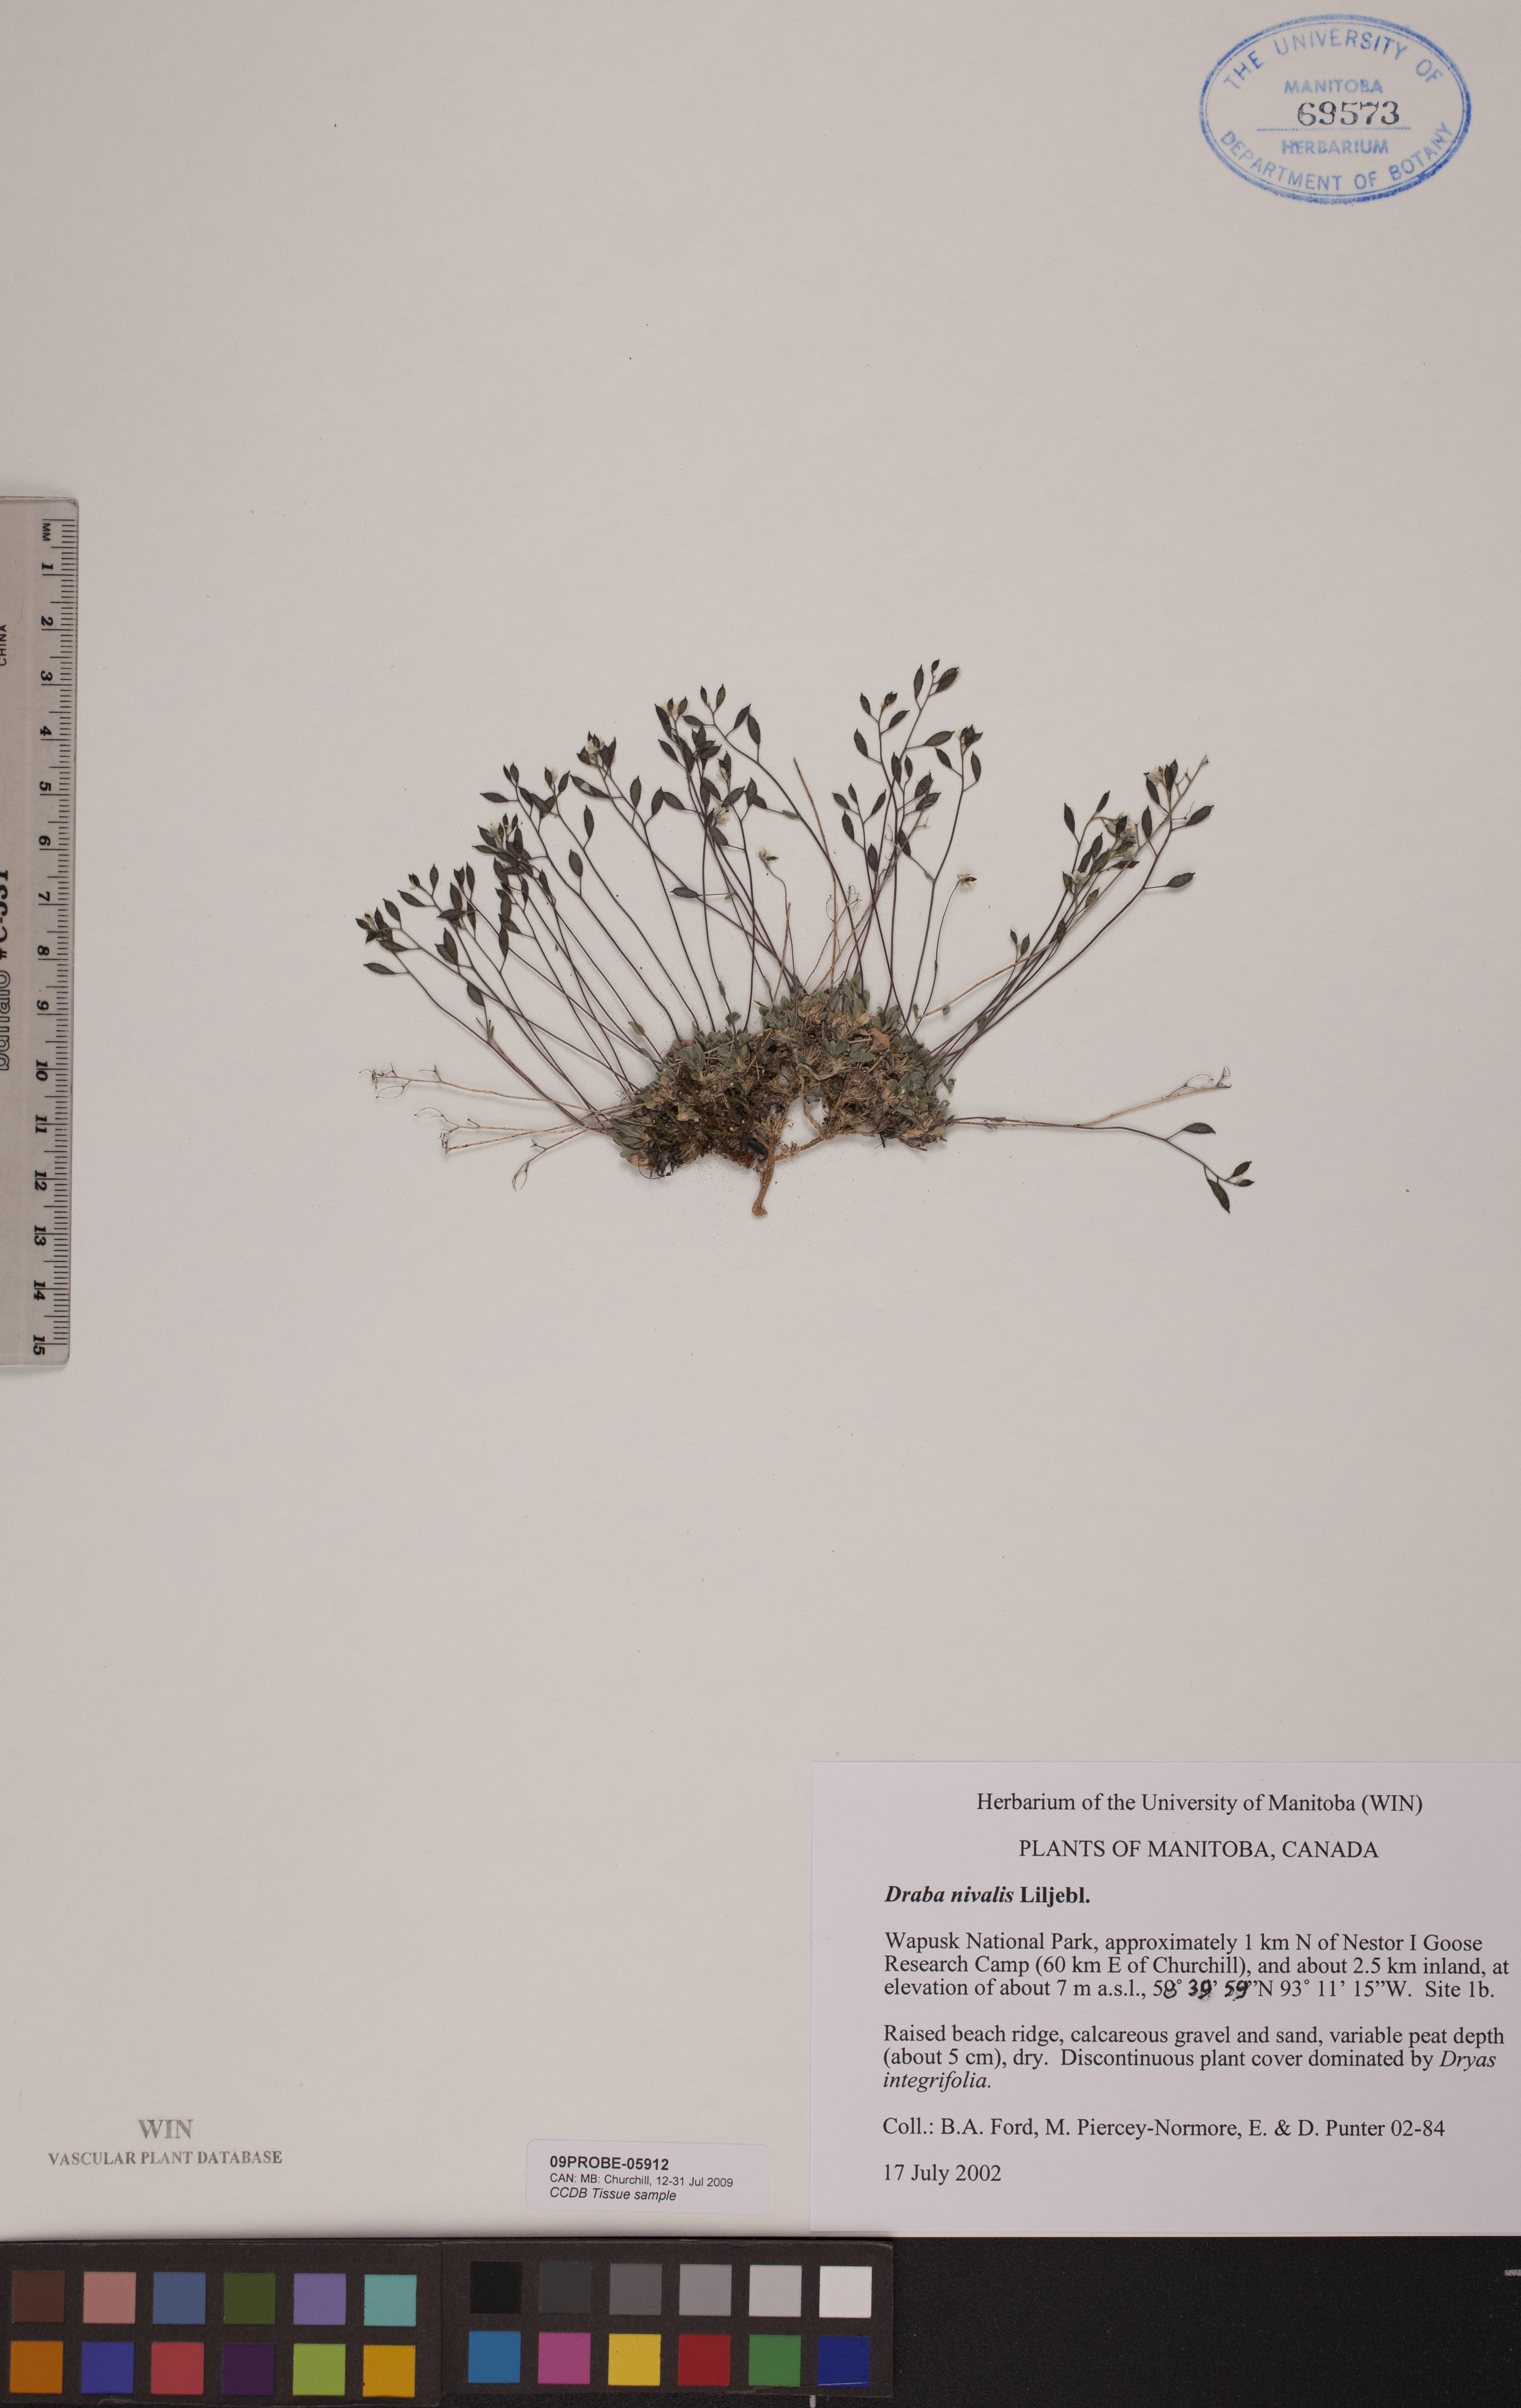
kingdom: Plantae
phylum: Tracheophyta
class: Magnoliopsida
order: Brassicales
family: Brassicaceae
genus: Draba
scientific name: Draba nivalis
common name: Snow draba
